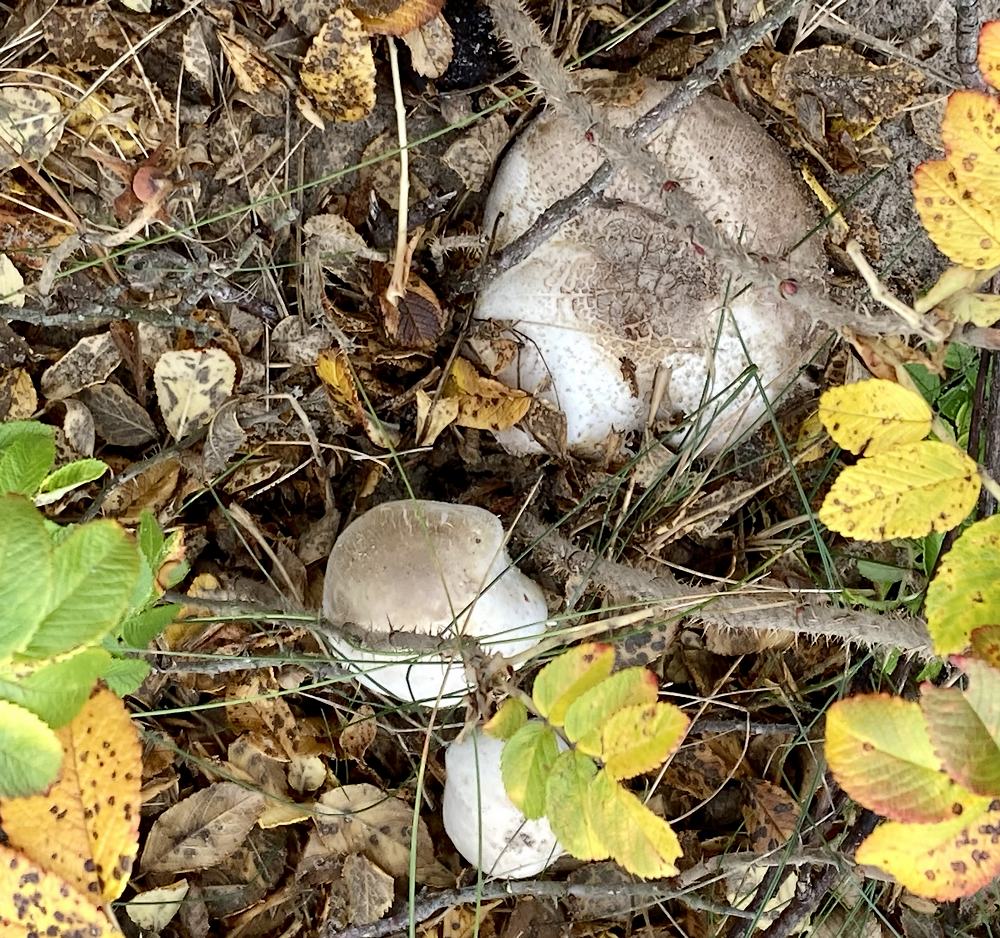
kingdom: Fungi
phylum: Basidiomycota
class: Agaricomycetes
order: Agaricales
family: Agaricaceae
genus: Agaricus
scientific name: Agaricus xanthodermus
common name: karbol-champignon
